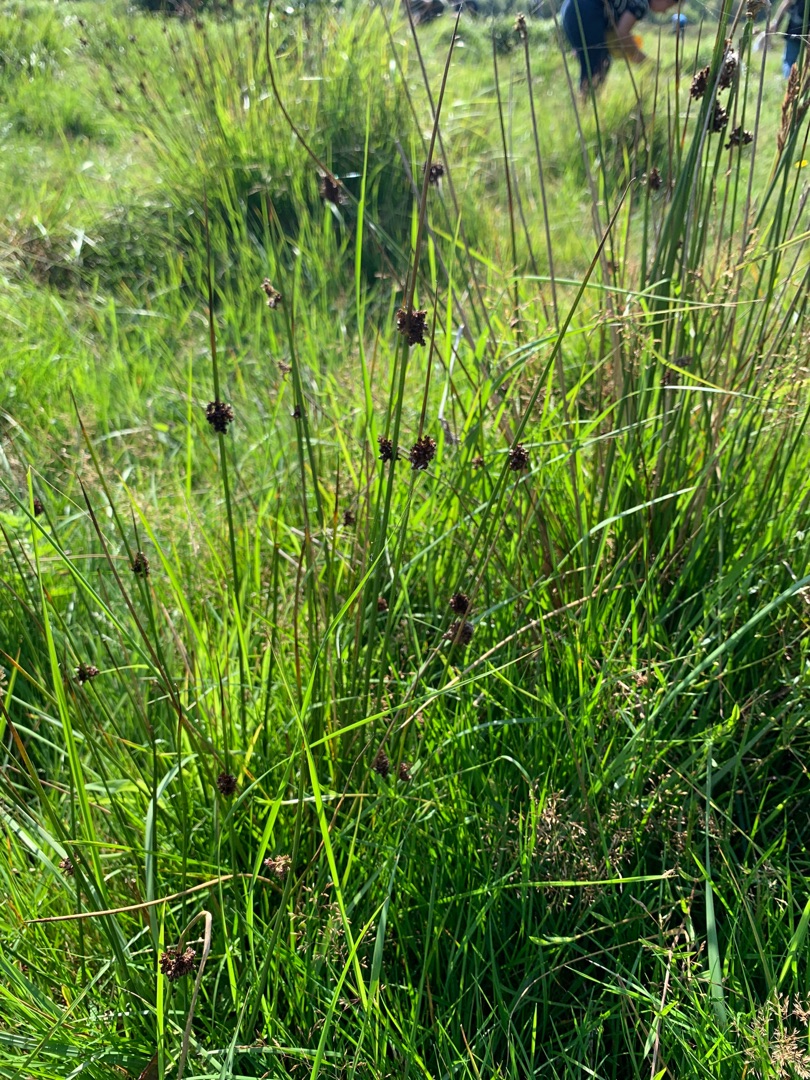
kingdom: Plantae
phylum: Tracheophyta
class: Liliopsida
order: Poales
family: Juncaceae
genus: Juncus
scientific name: Juncus
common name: Sivslægten
